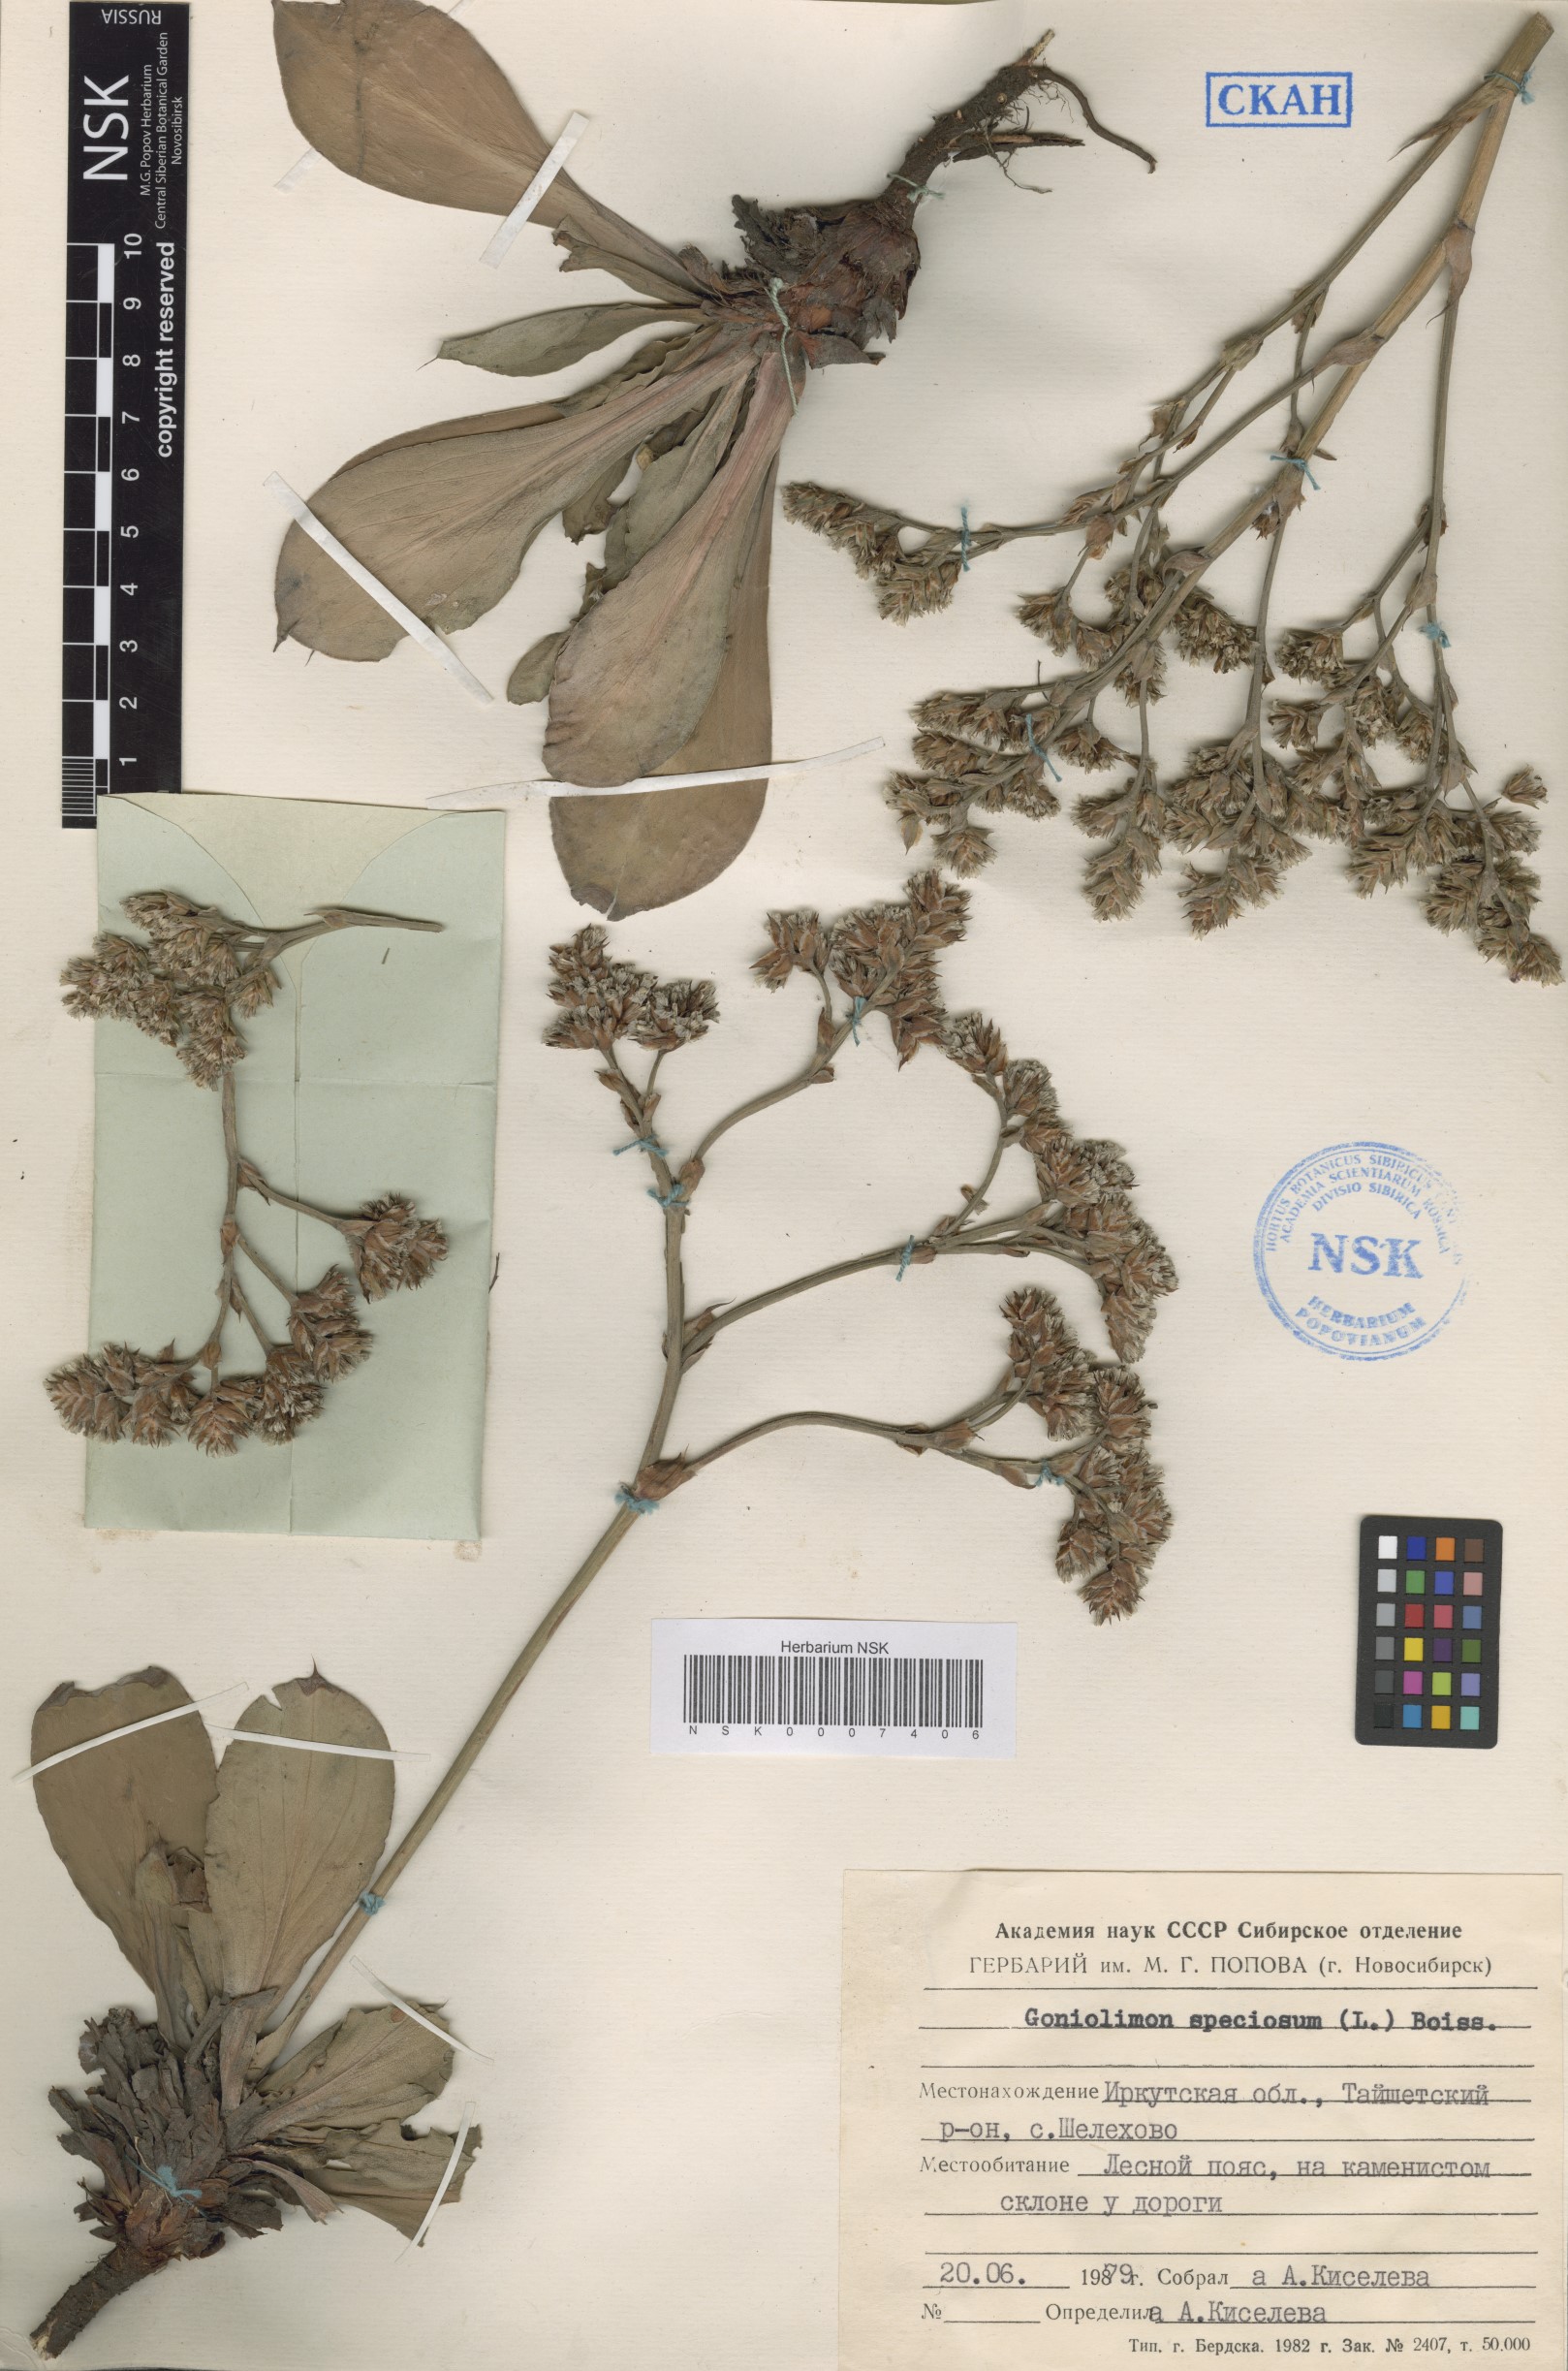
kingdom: Plantae
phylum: Tracheophyta
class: Magnoliopsida
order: Caryophyllales
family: Plumbaginaceae
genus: Goniolimon
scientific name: Goniolimon speciosum
